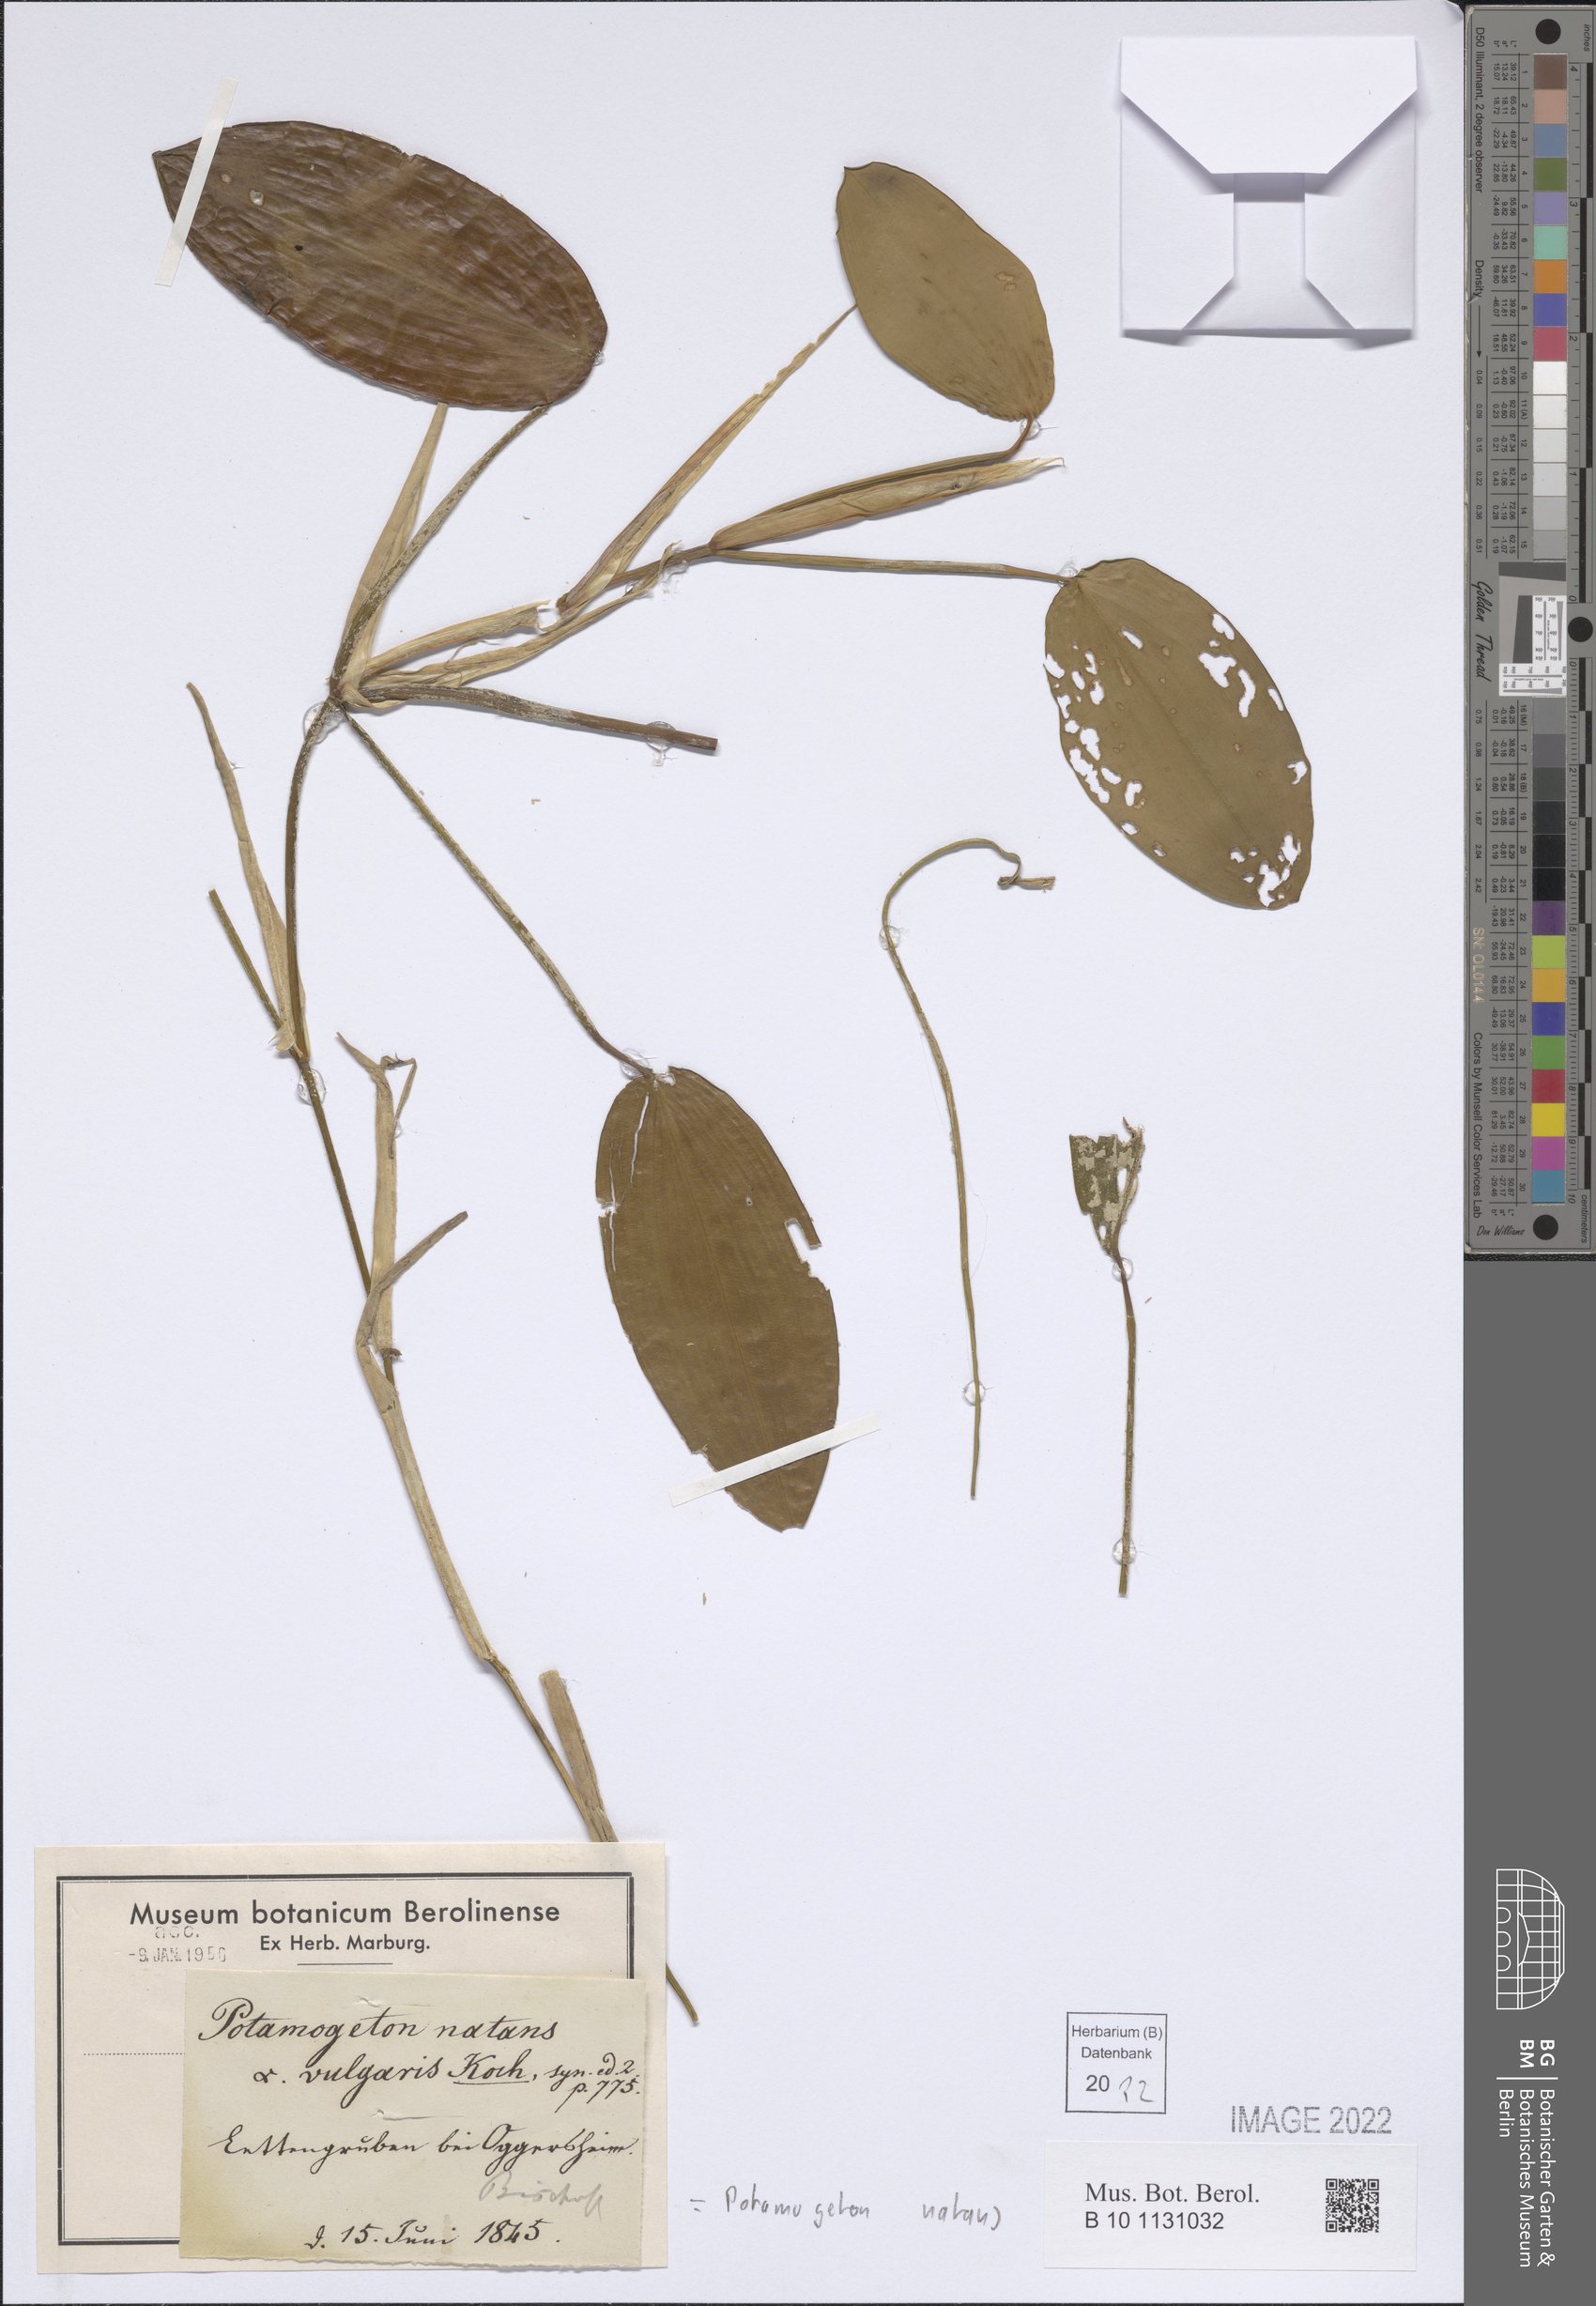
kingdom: Plantae
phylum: Tracheophyta
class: Liliopsida
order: Alismatales
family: Potamogetonaceae
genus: Potamogeton
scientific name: Potamogeton natans
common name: Broad-leaved pondweed
